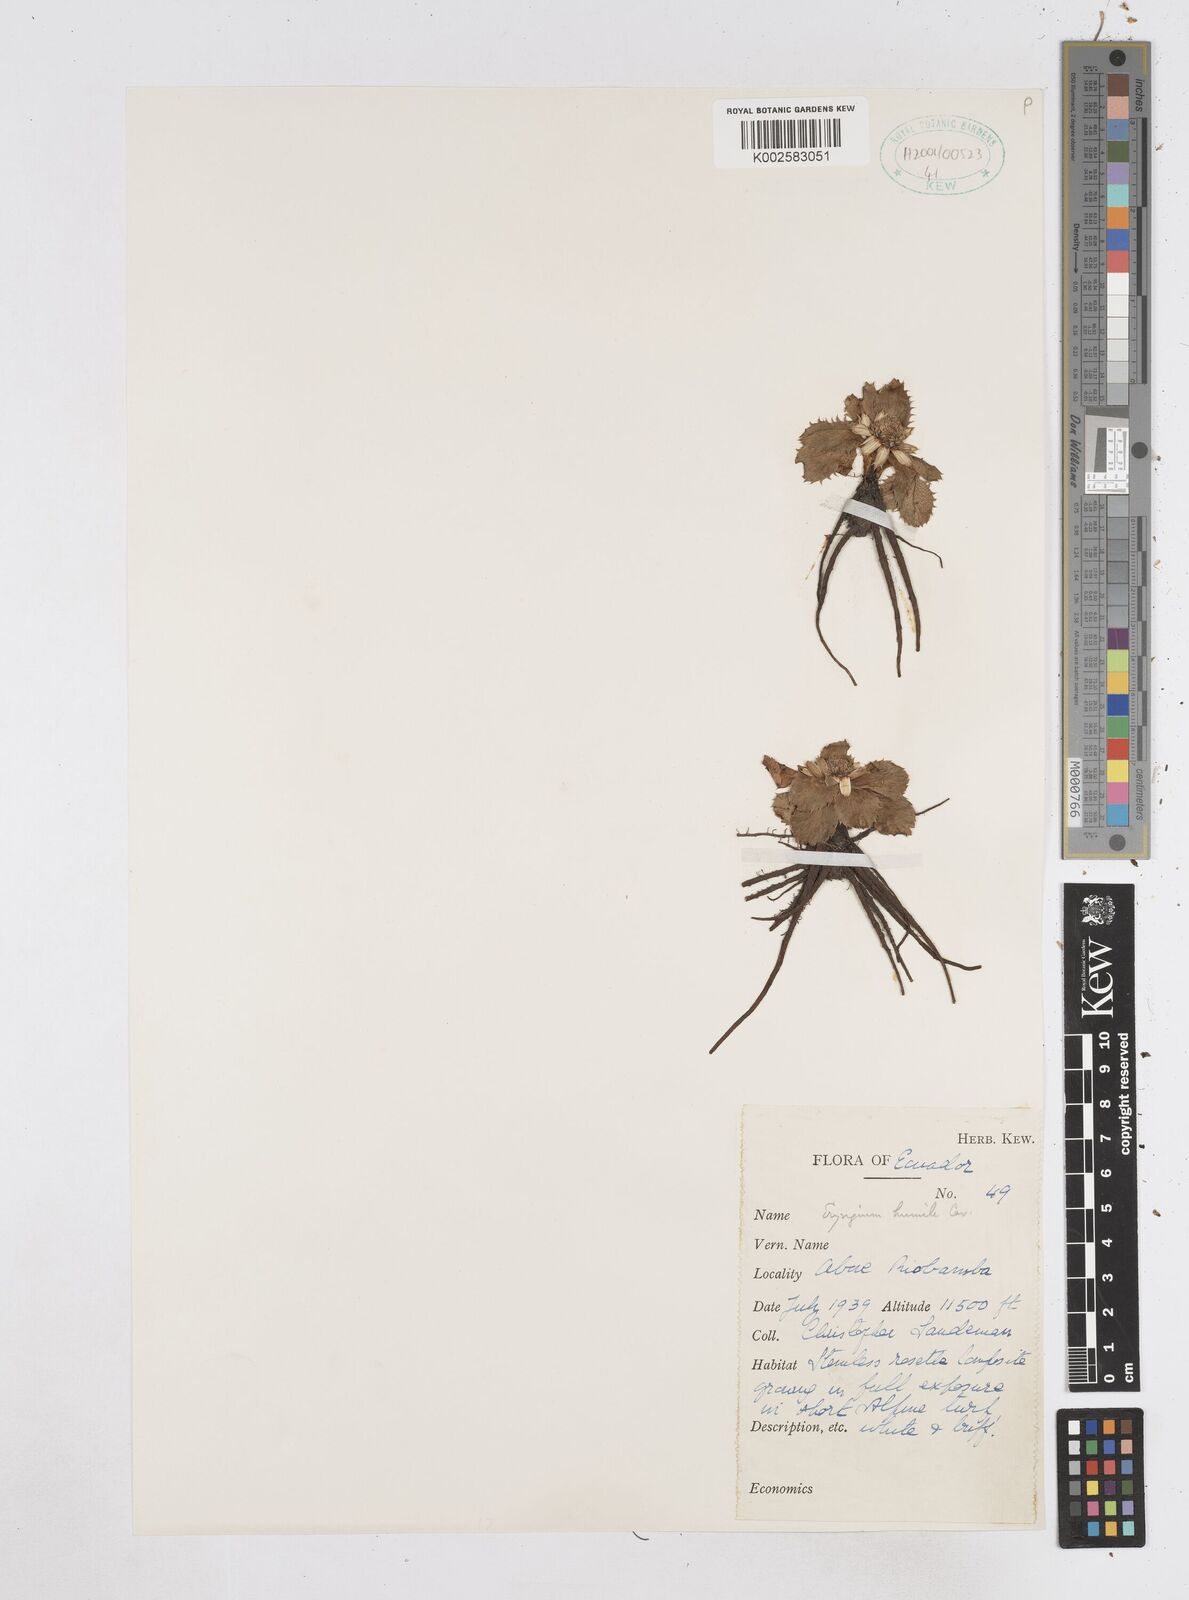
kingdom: Plantae
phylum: Tracheophyta
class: Magnoliopsida
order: Apiales
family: Apiaceae
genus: Eryngium
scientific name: Eryngium humile
